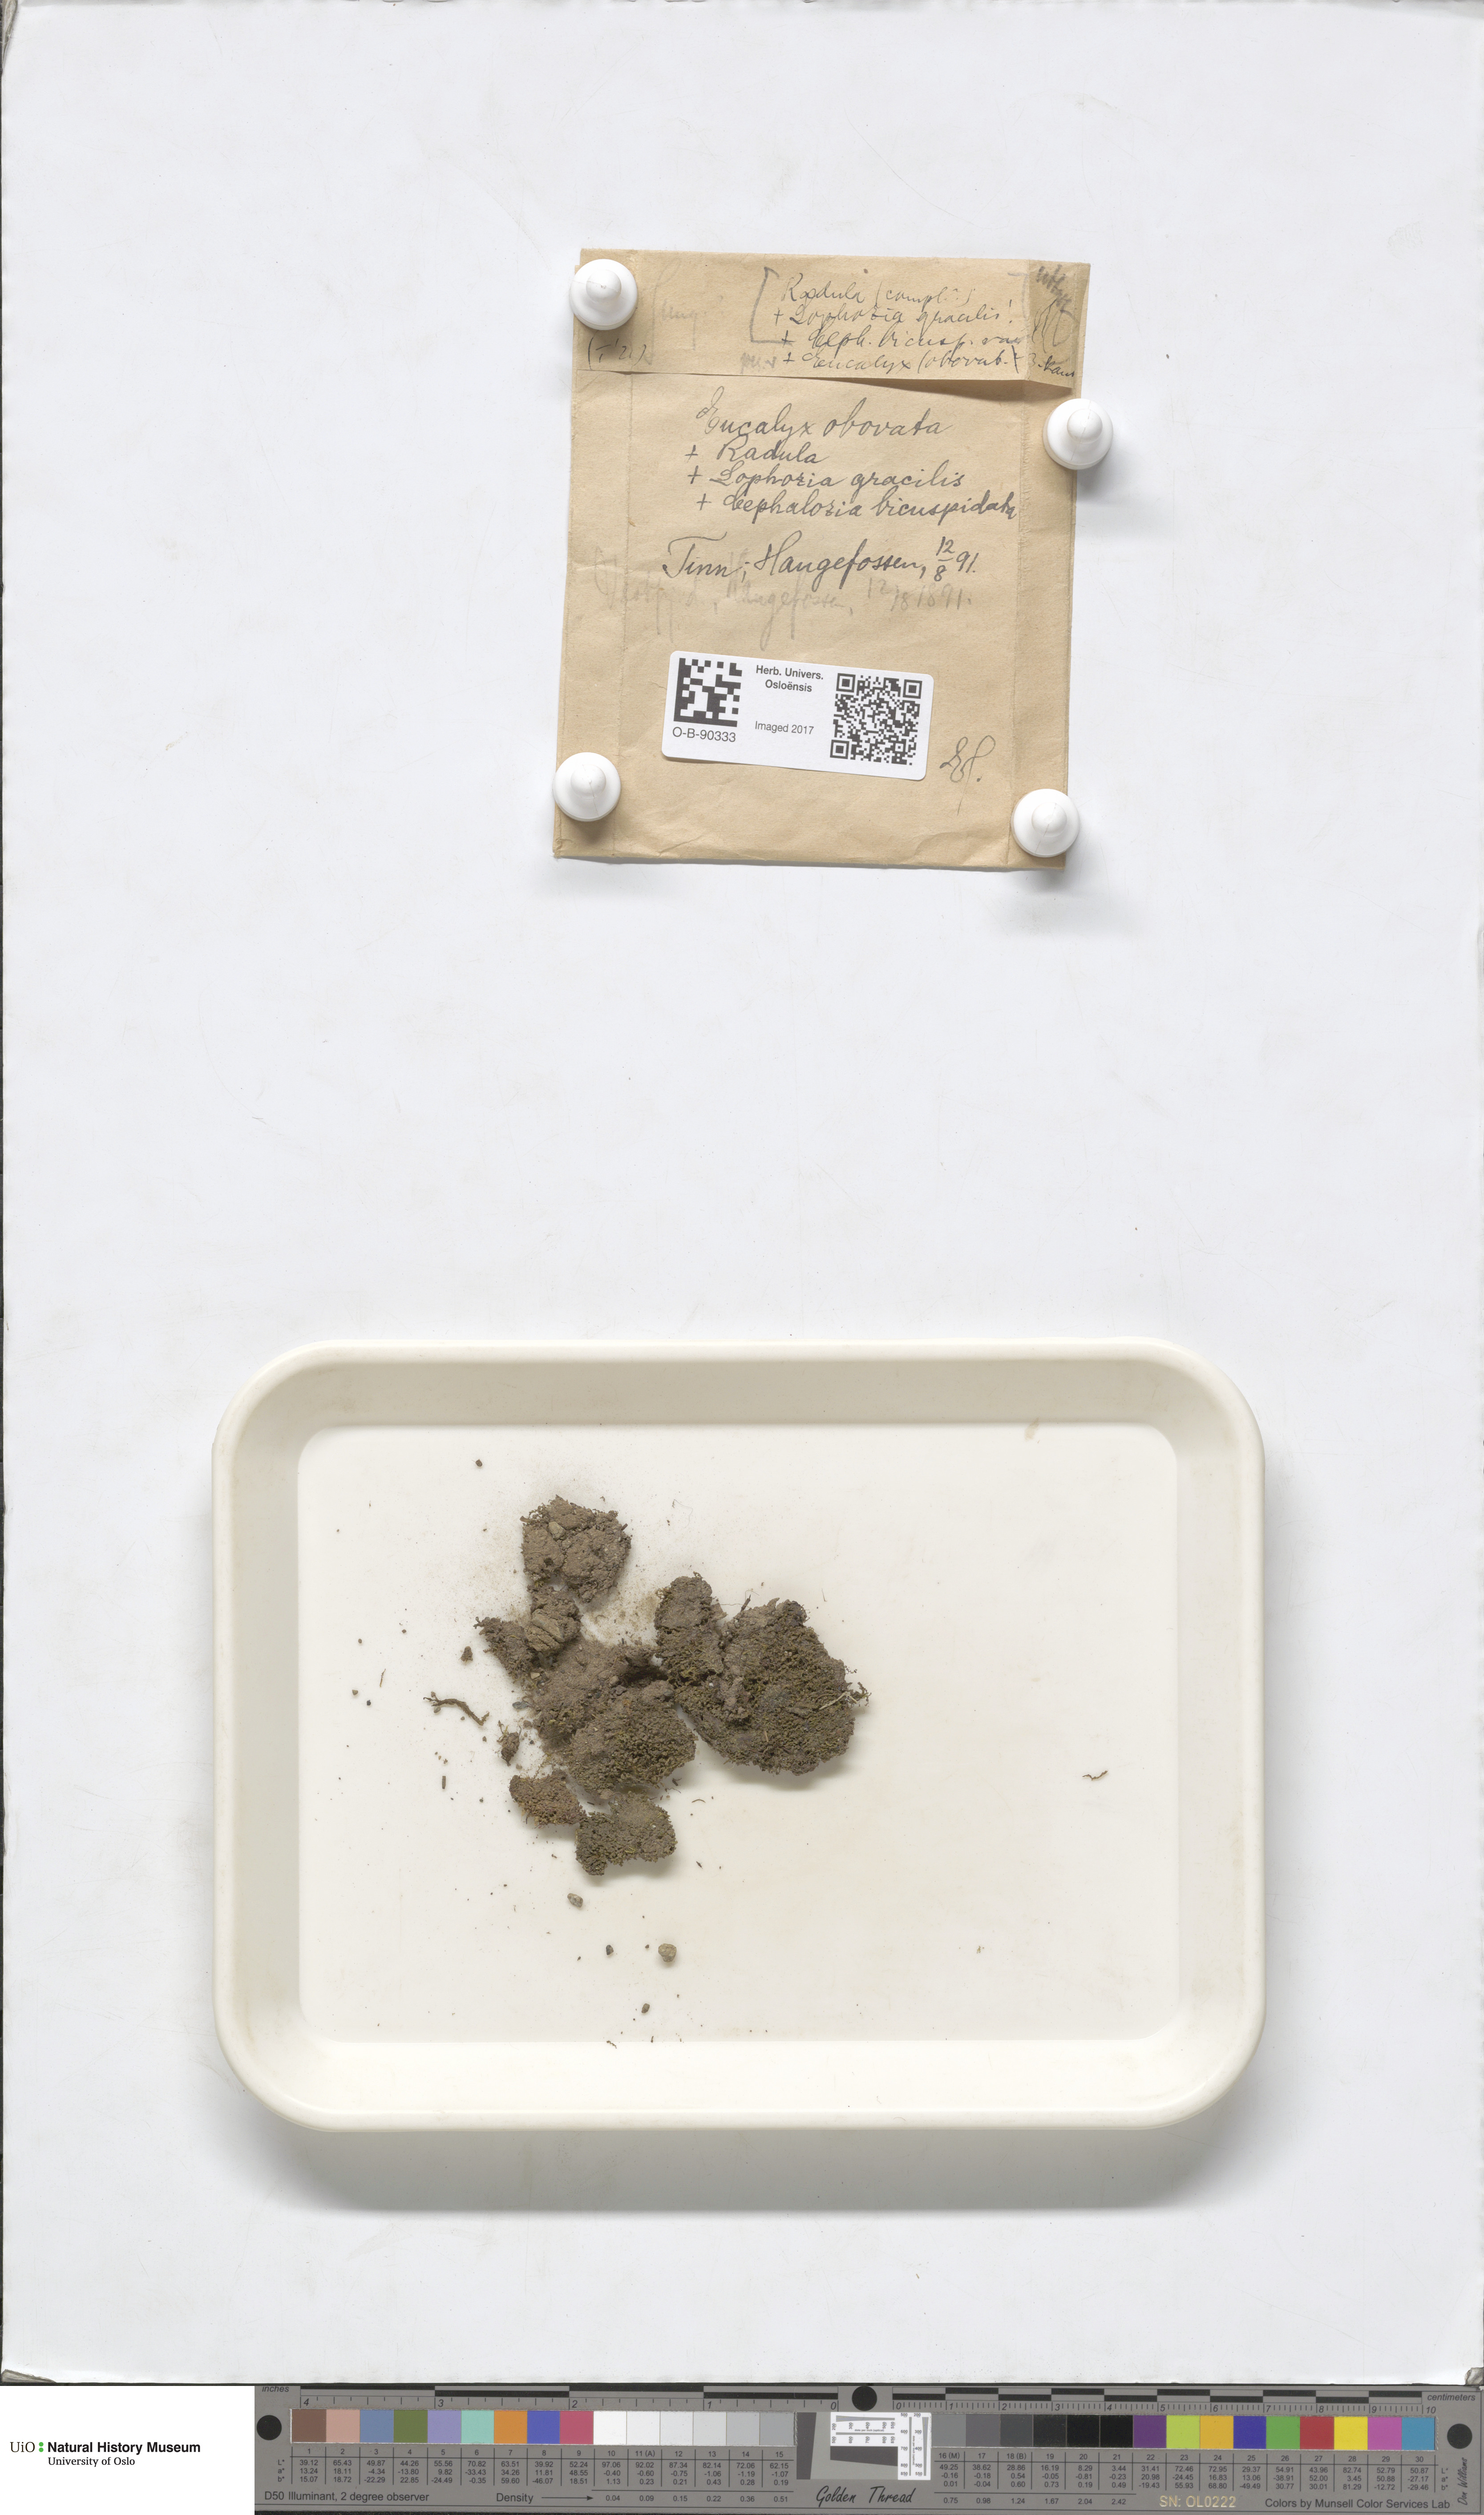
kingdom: Plantae
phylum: Marchantiophyta
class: Jungermanniopsida
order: Jungermanniales
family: Solenostomataceae
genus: Solenostoma
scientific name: Solenostoma obovatum
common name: Egg flapwort
